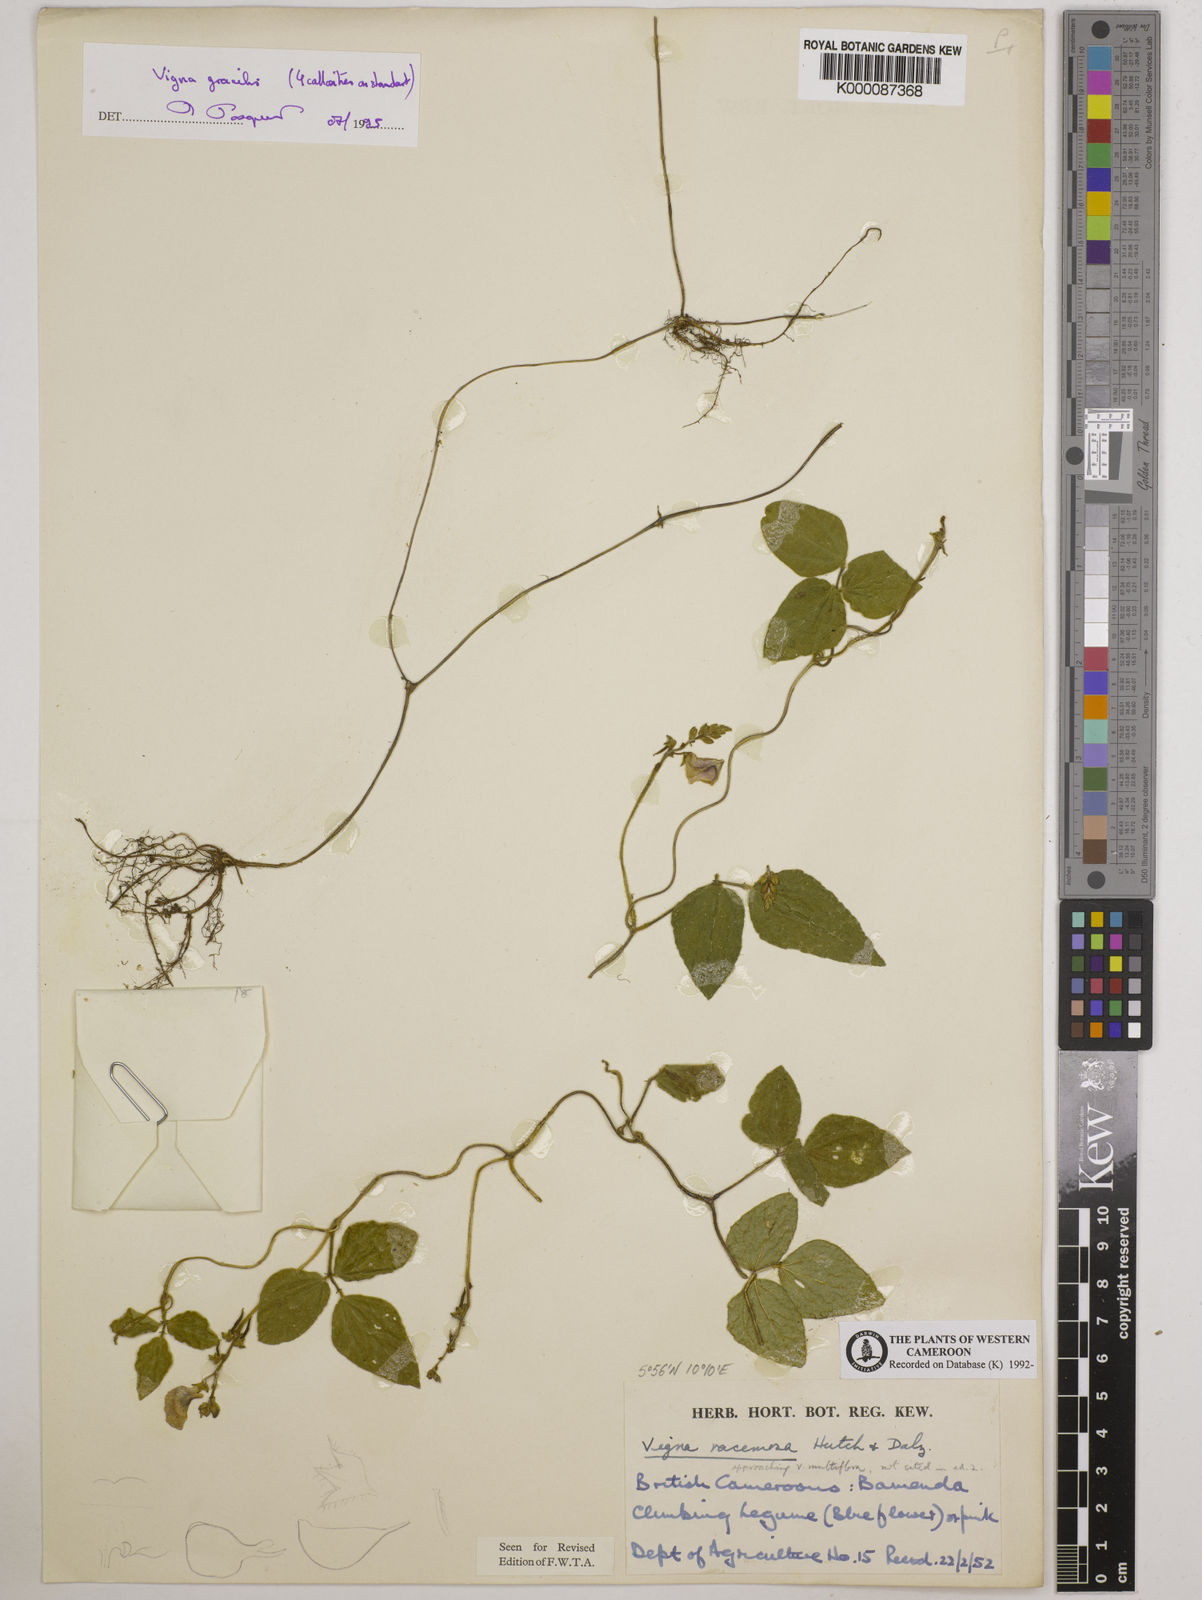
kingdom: Plantae
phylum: Tracheophyta
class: Magnoliopsida
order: Fabales
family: Fabaceae
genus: Vigna
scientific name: Vigna gracilis
